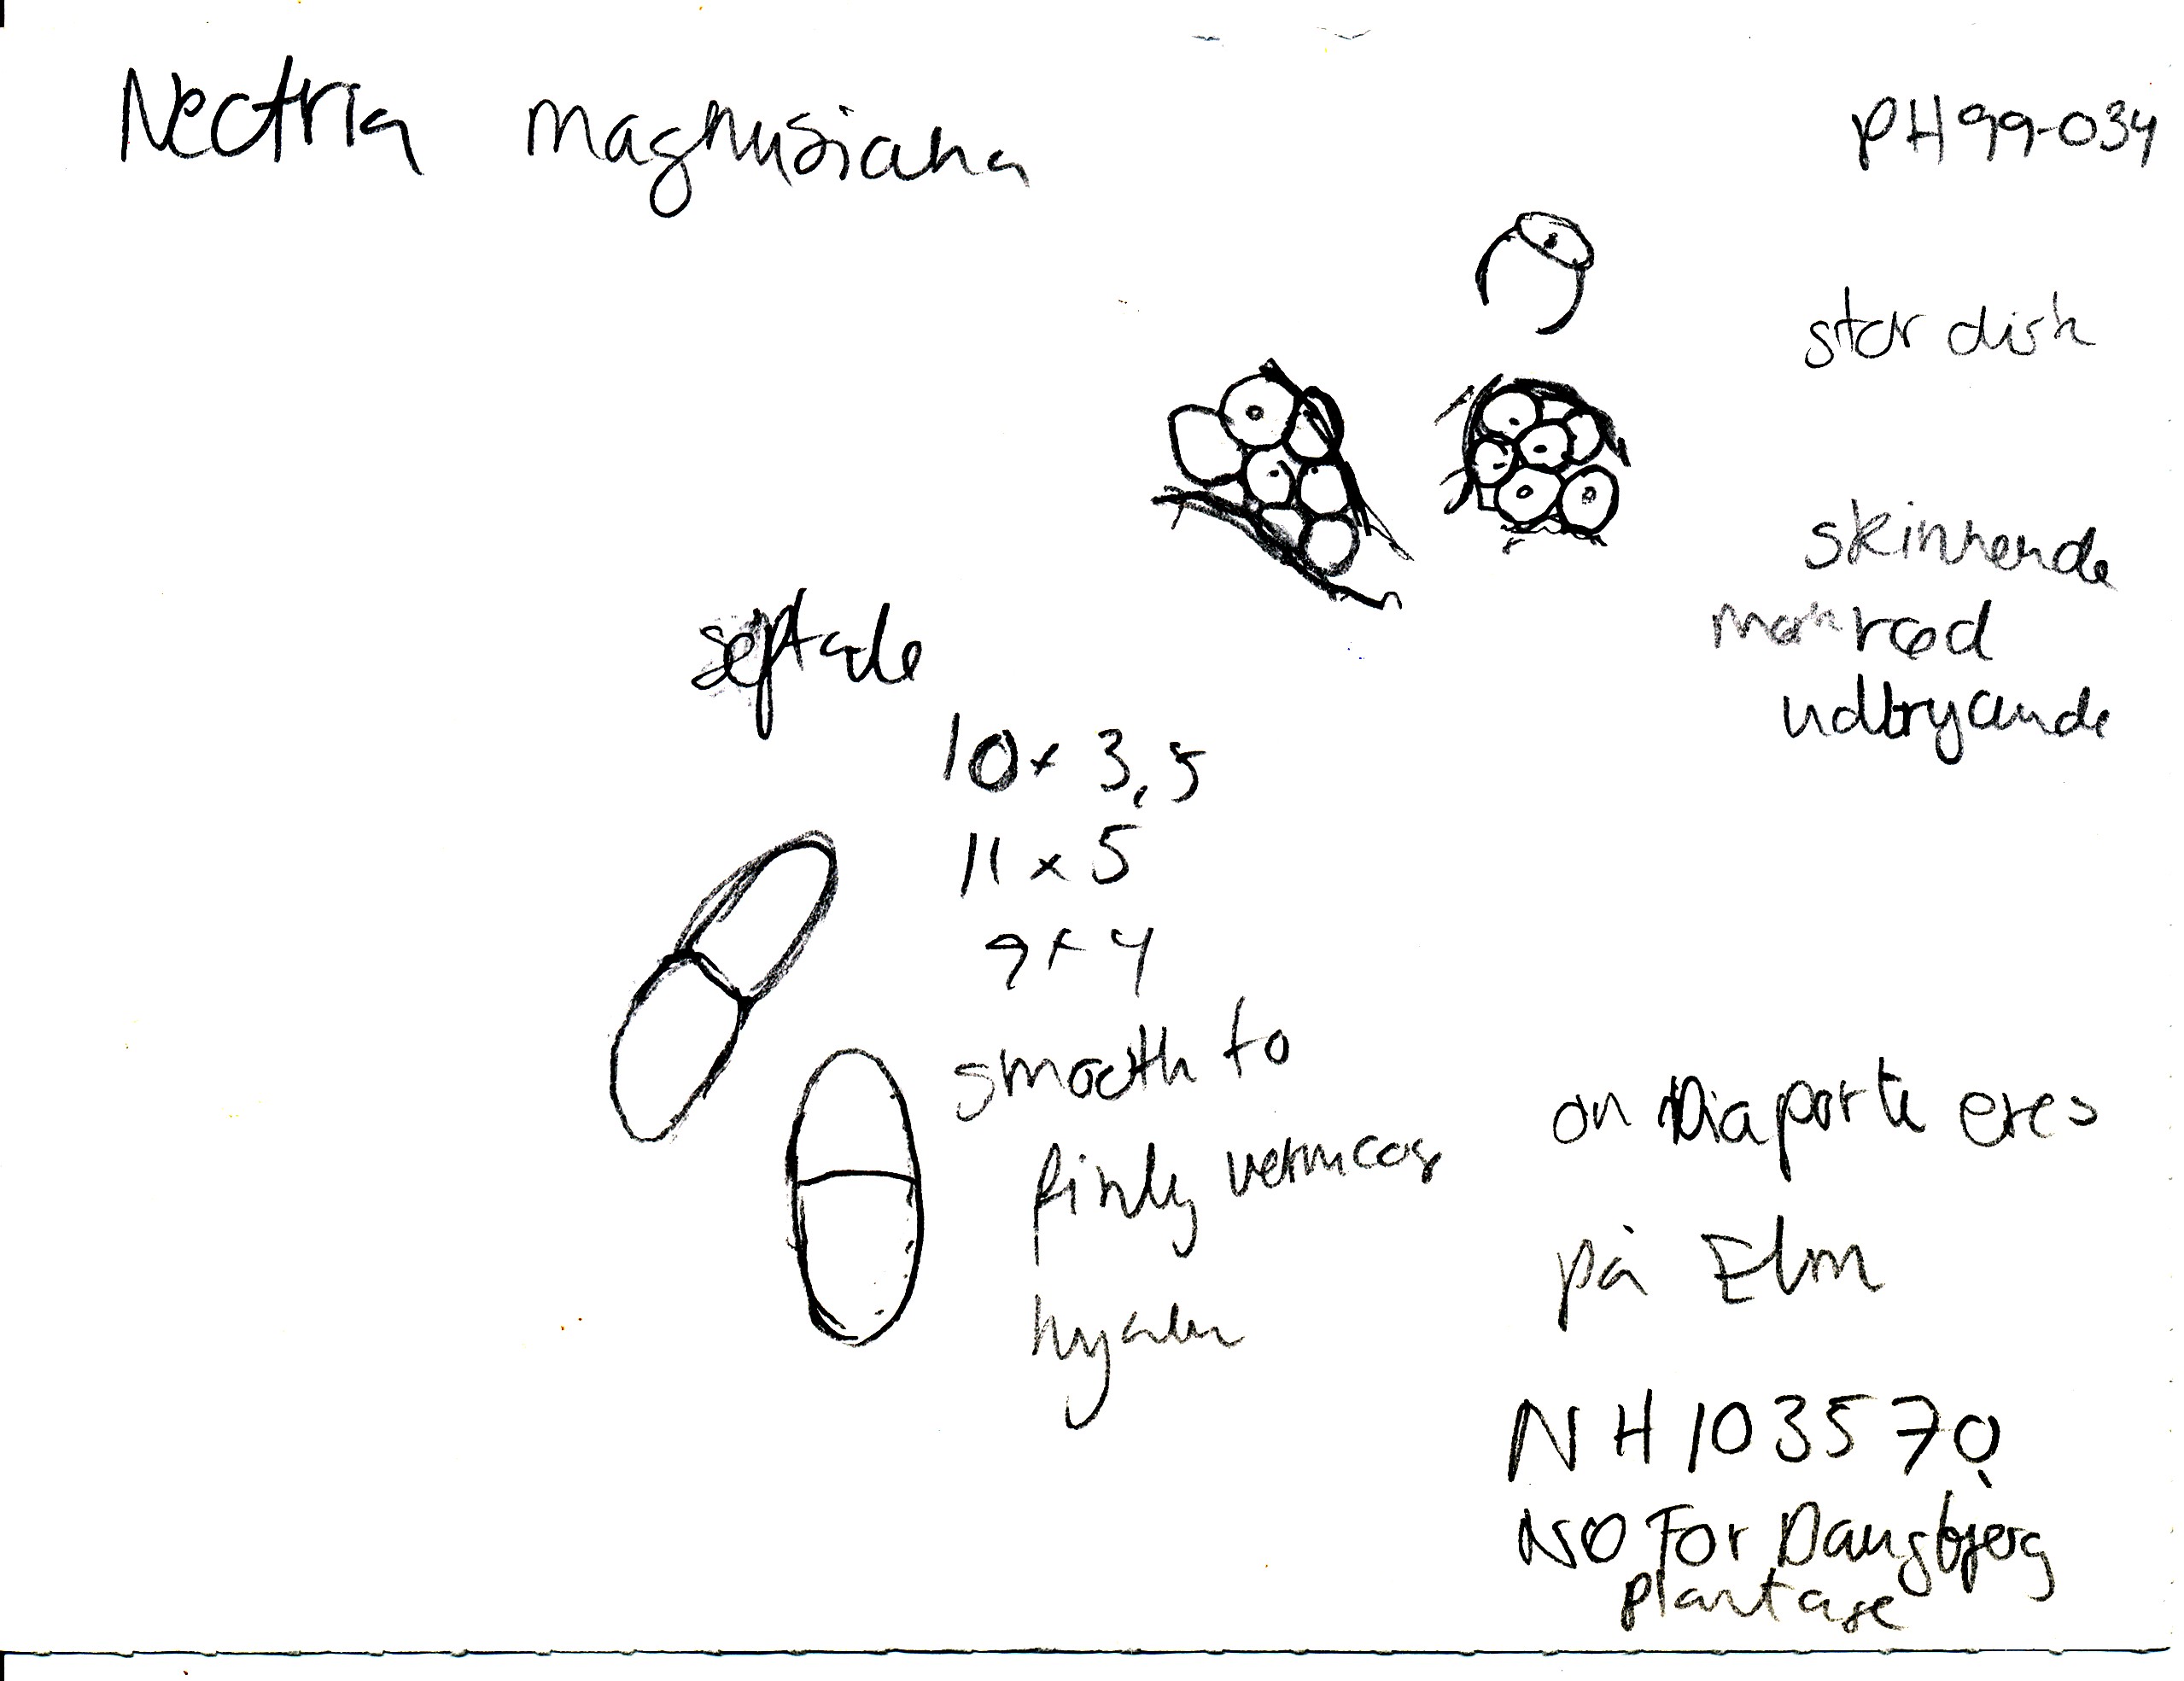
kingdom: Fungi
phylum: Ascomycota
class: Sordariomycetes
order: Hypocreales
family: Nectriaceae
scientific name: Nectriaceae
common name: cinnobersvampfamilien
